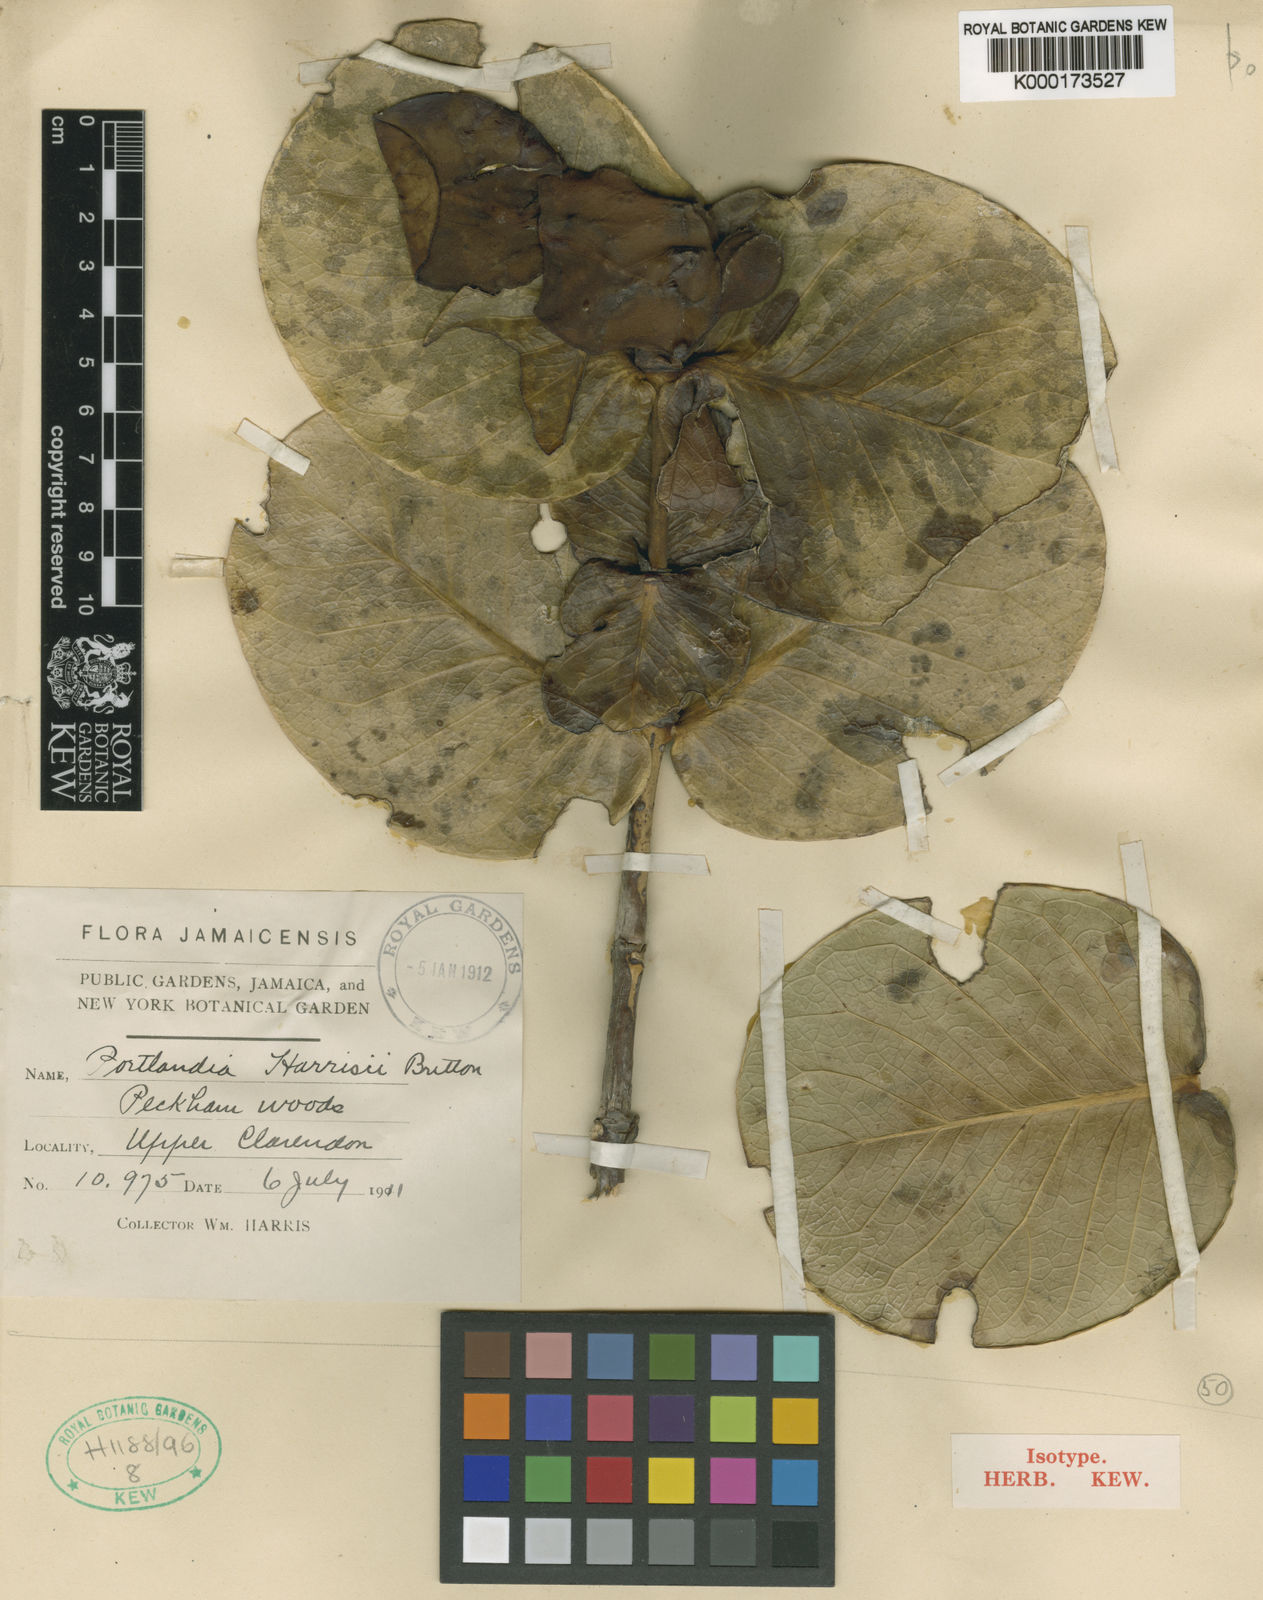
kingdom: Plantae
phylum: Tracheophyta
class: Magnoliopsida
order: Gentianales
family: Rubiaceae
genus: Portlandia
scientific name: Portlandia harrisii
